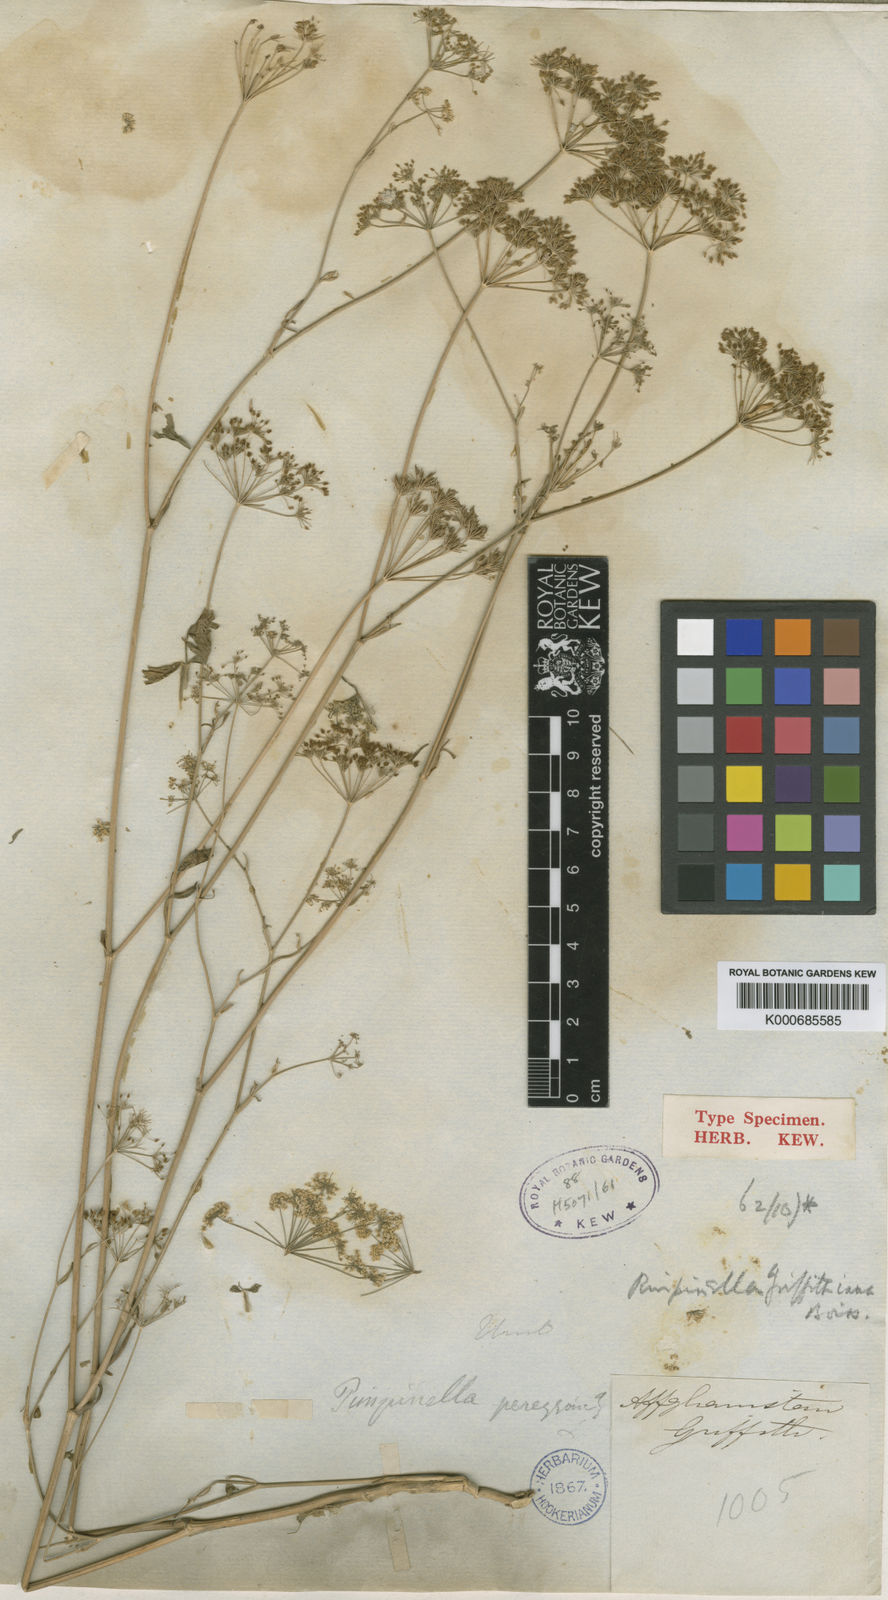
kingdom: Plantae
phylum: Tracheophyta
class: Magnoliopsida
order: Apiales
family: Apiaceae
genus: Pimpinella
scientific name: Pimpinella affinis
